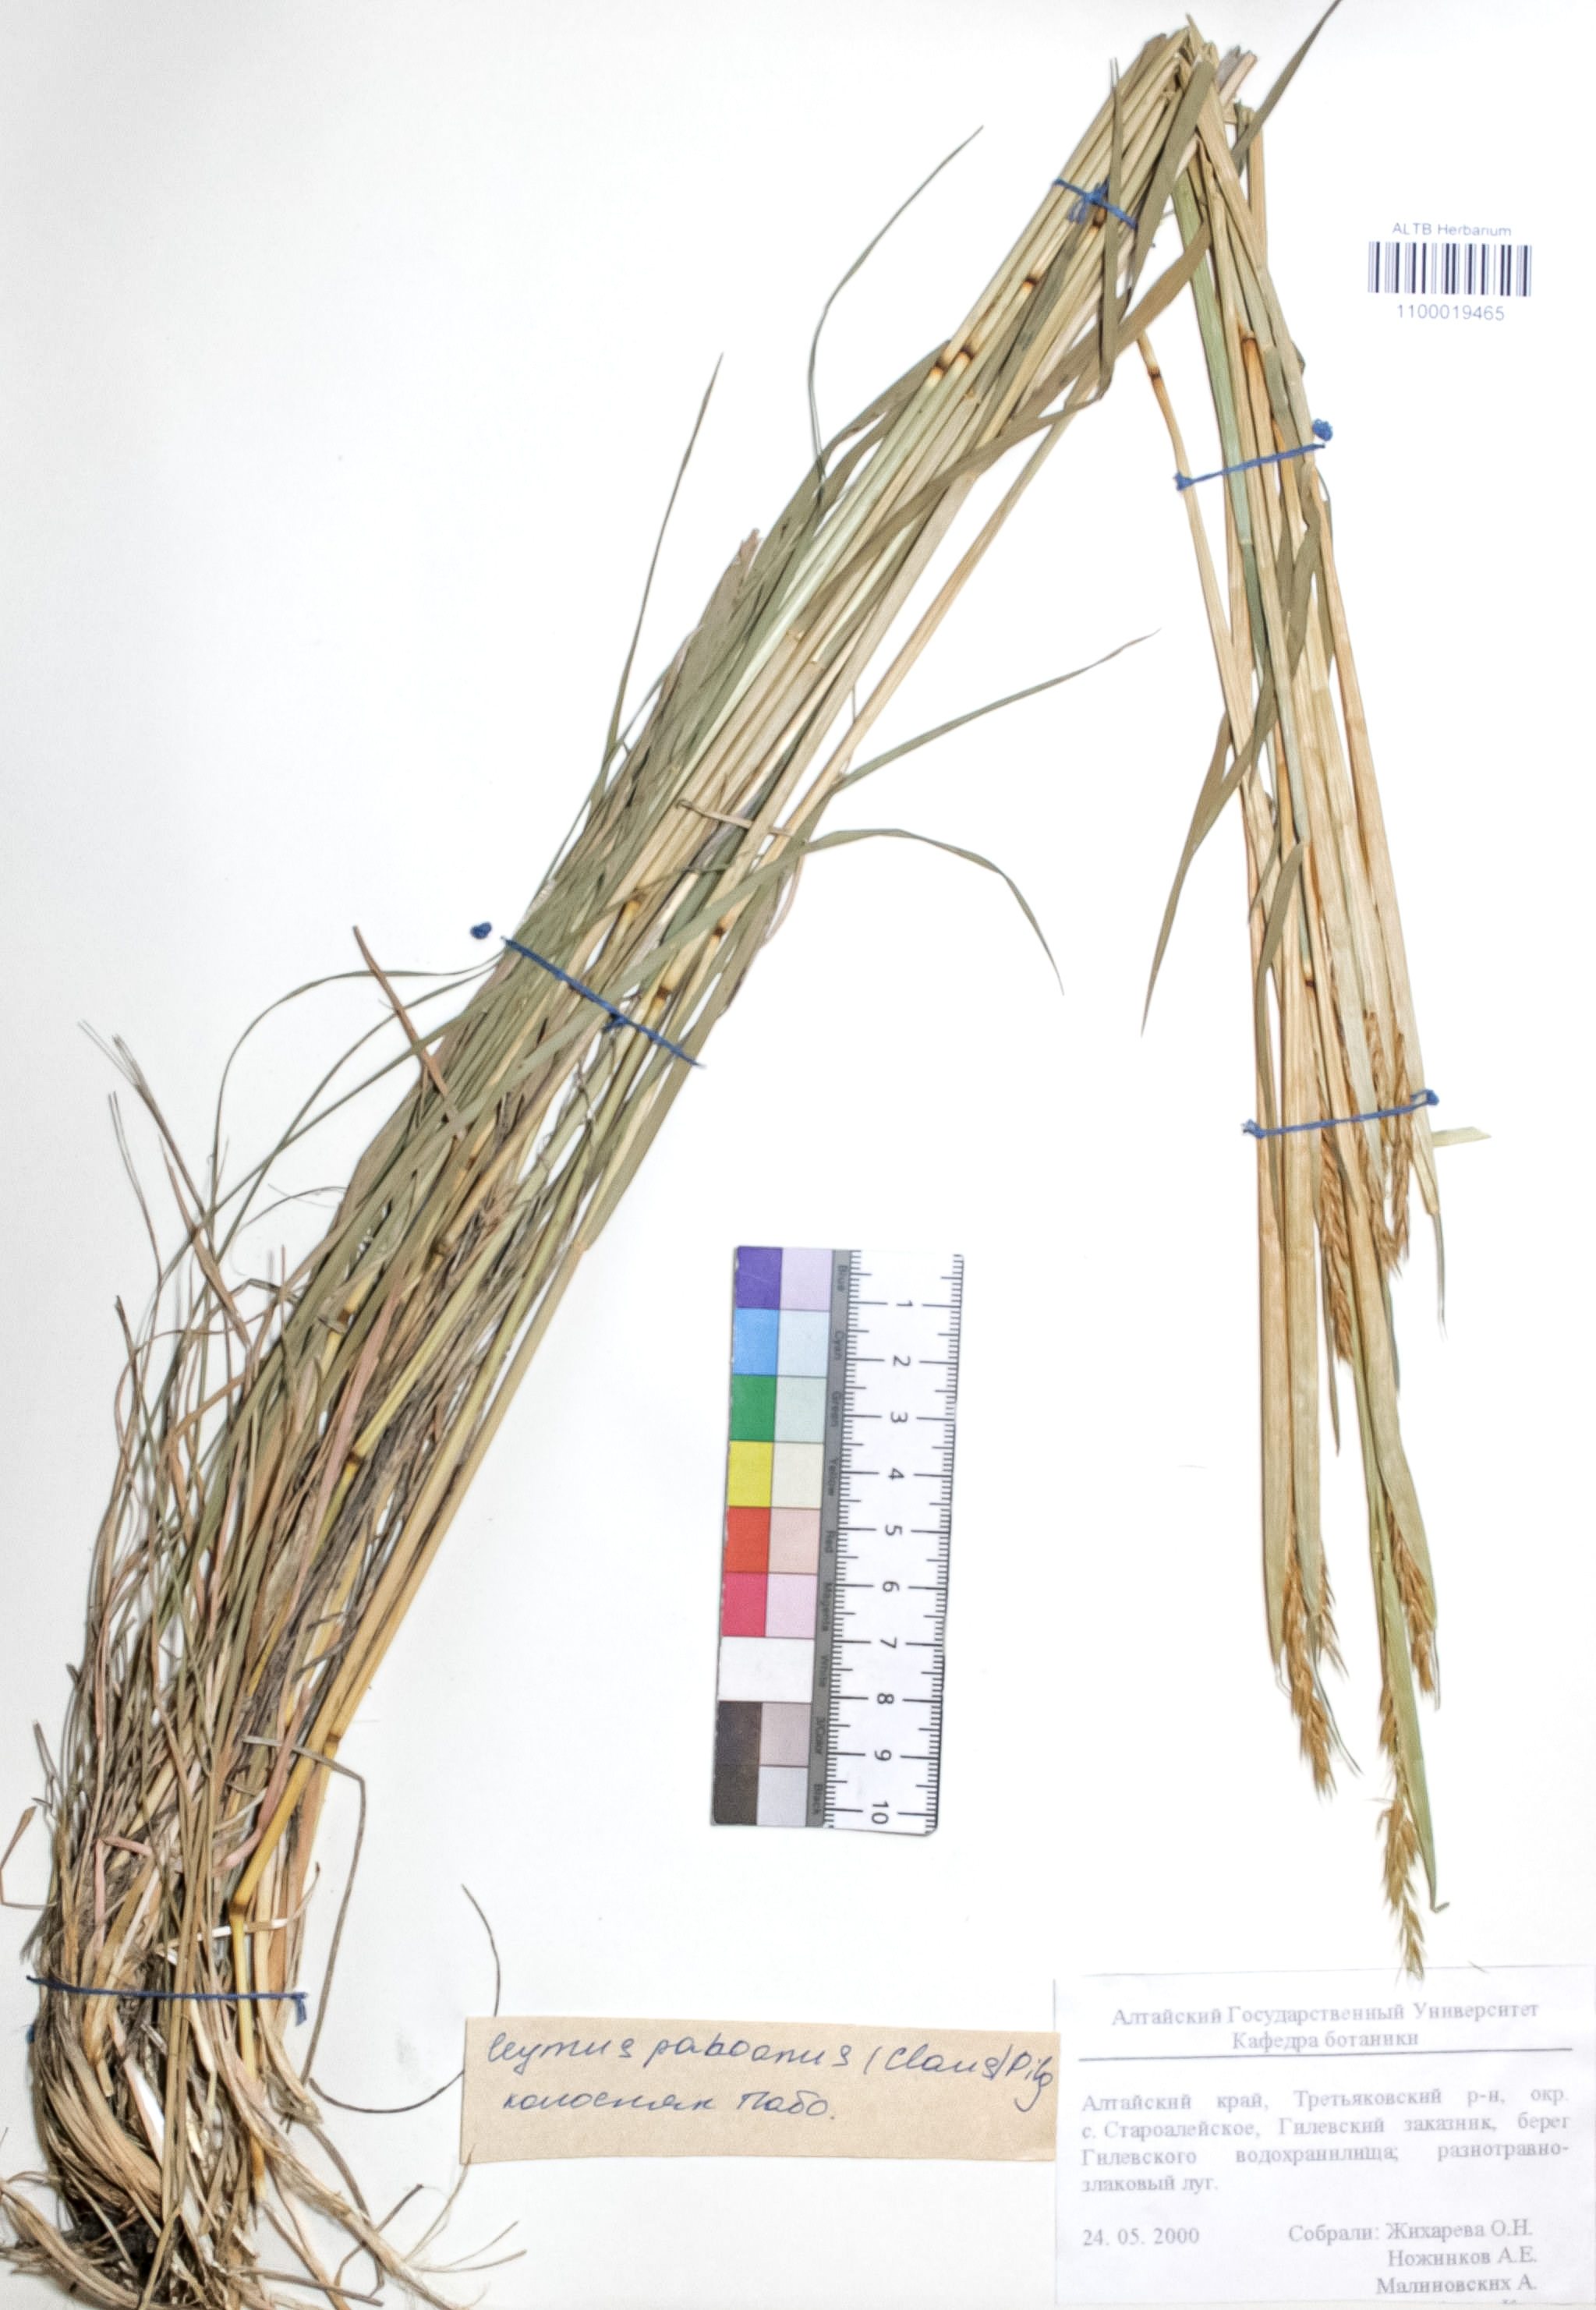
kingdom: Plantae
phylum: Tracheophyta
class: Liliopsida
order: Poales
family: Poaceae
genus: Leymus
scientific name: Leymus paboanus
